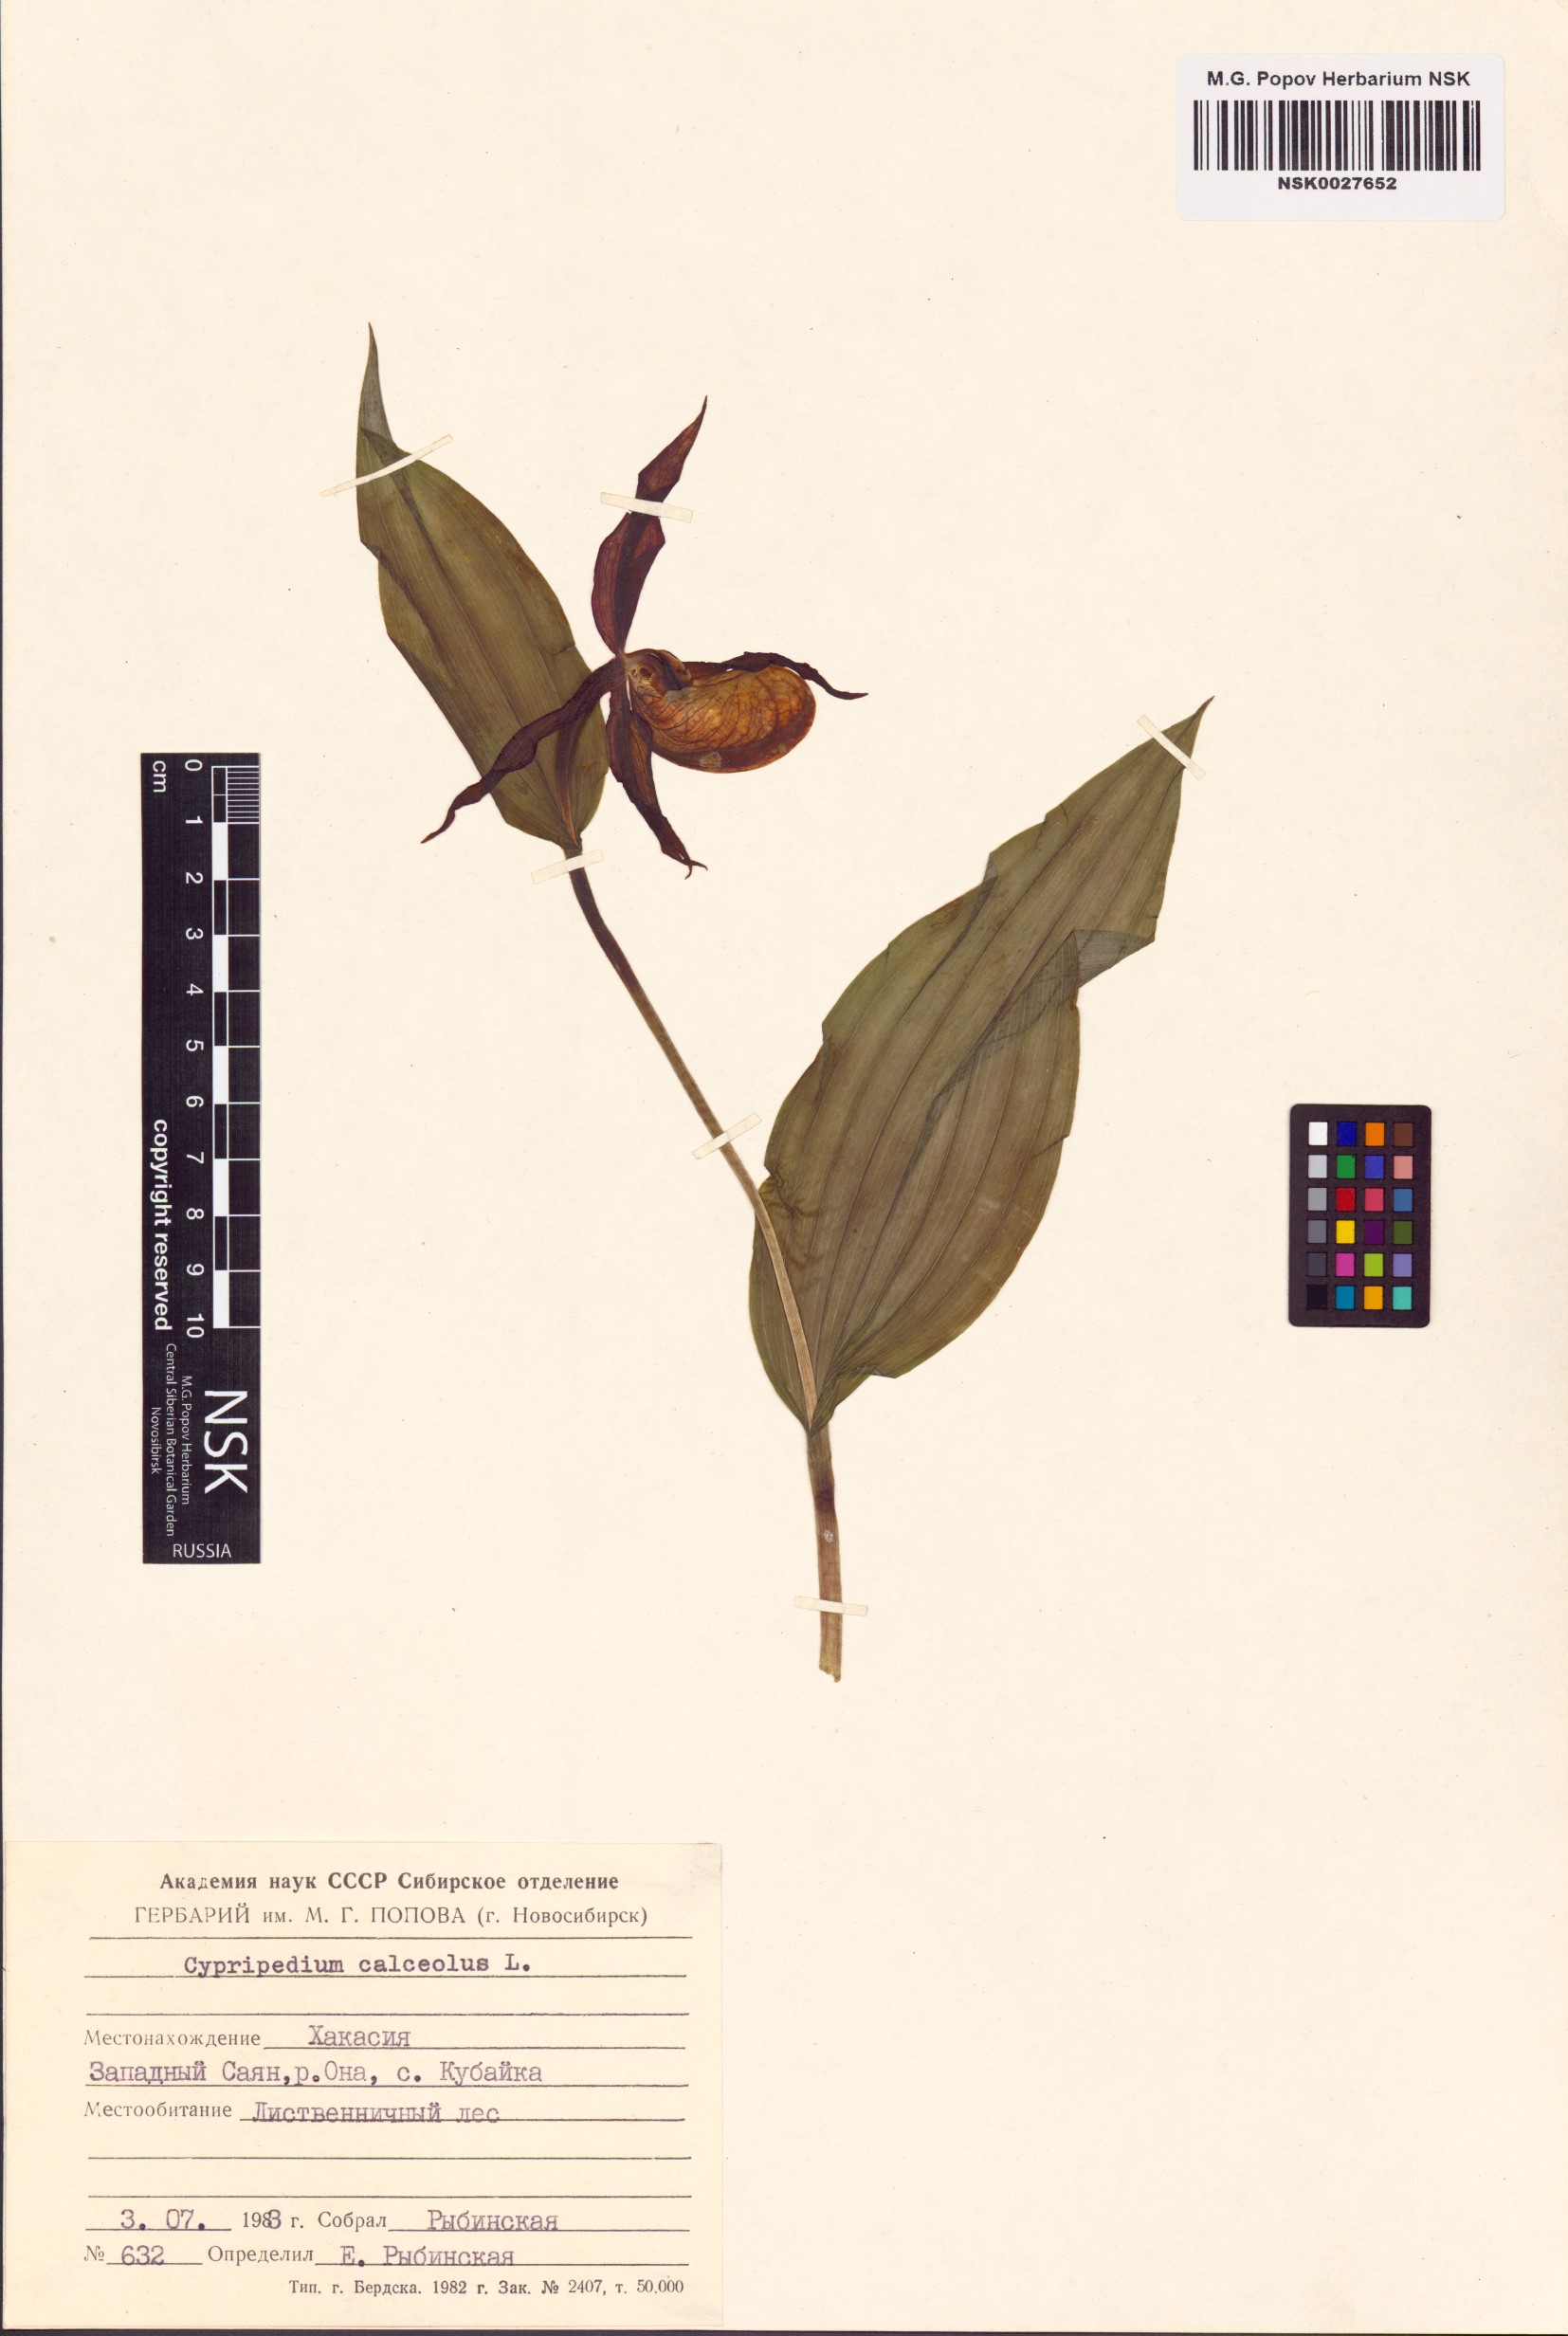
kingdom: Plantae
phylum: Tracheophyta
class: Liliopsida
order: Asparagales
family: Orchidaceae
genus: Cypripedium
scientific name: Cypripedium calceolus
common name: Lady's-slipper
